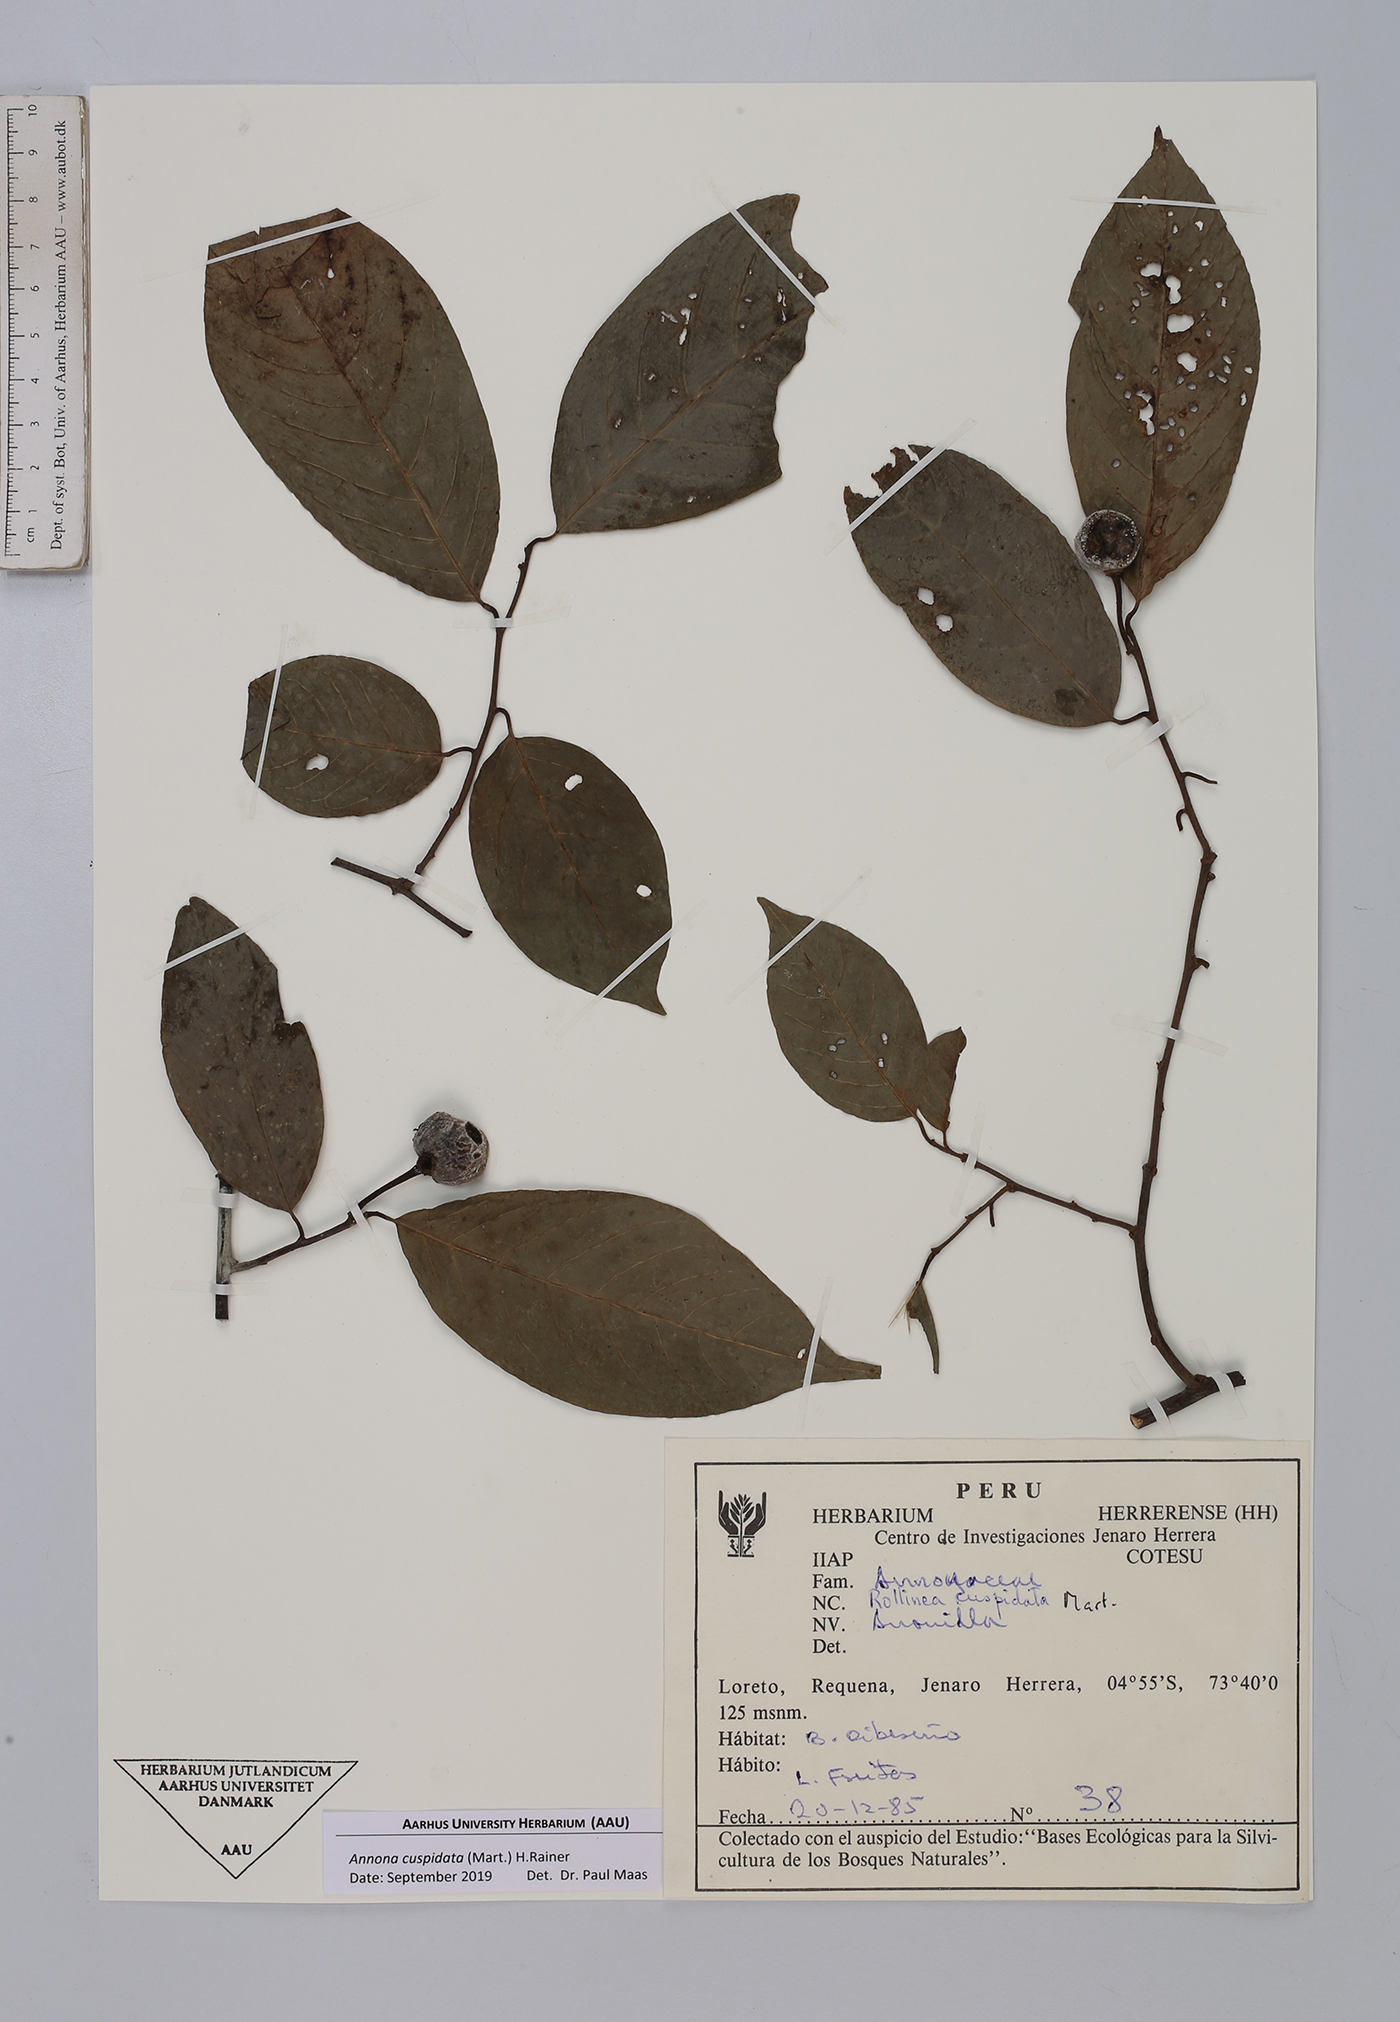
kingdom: Plantae
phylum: Tracheophyta
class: Magnoliopsida
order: Magnoliales
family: Annonaceae
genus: Annona
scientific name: Annona cuspidata
